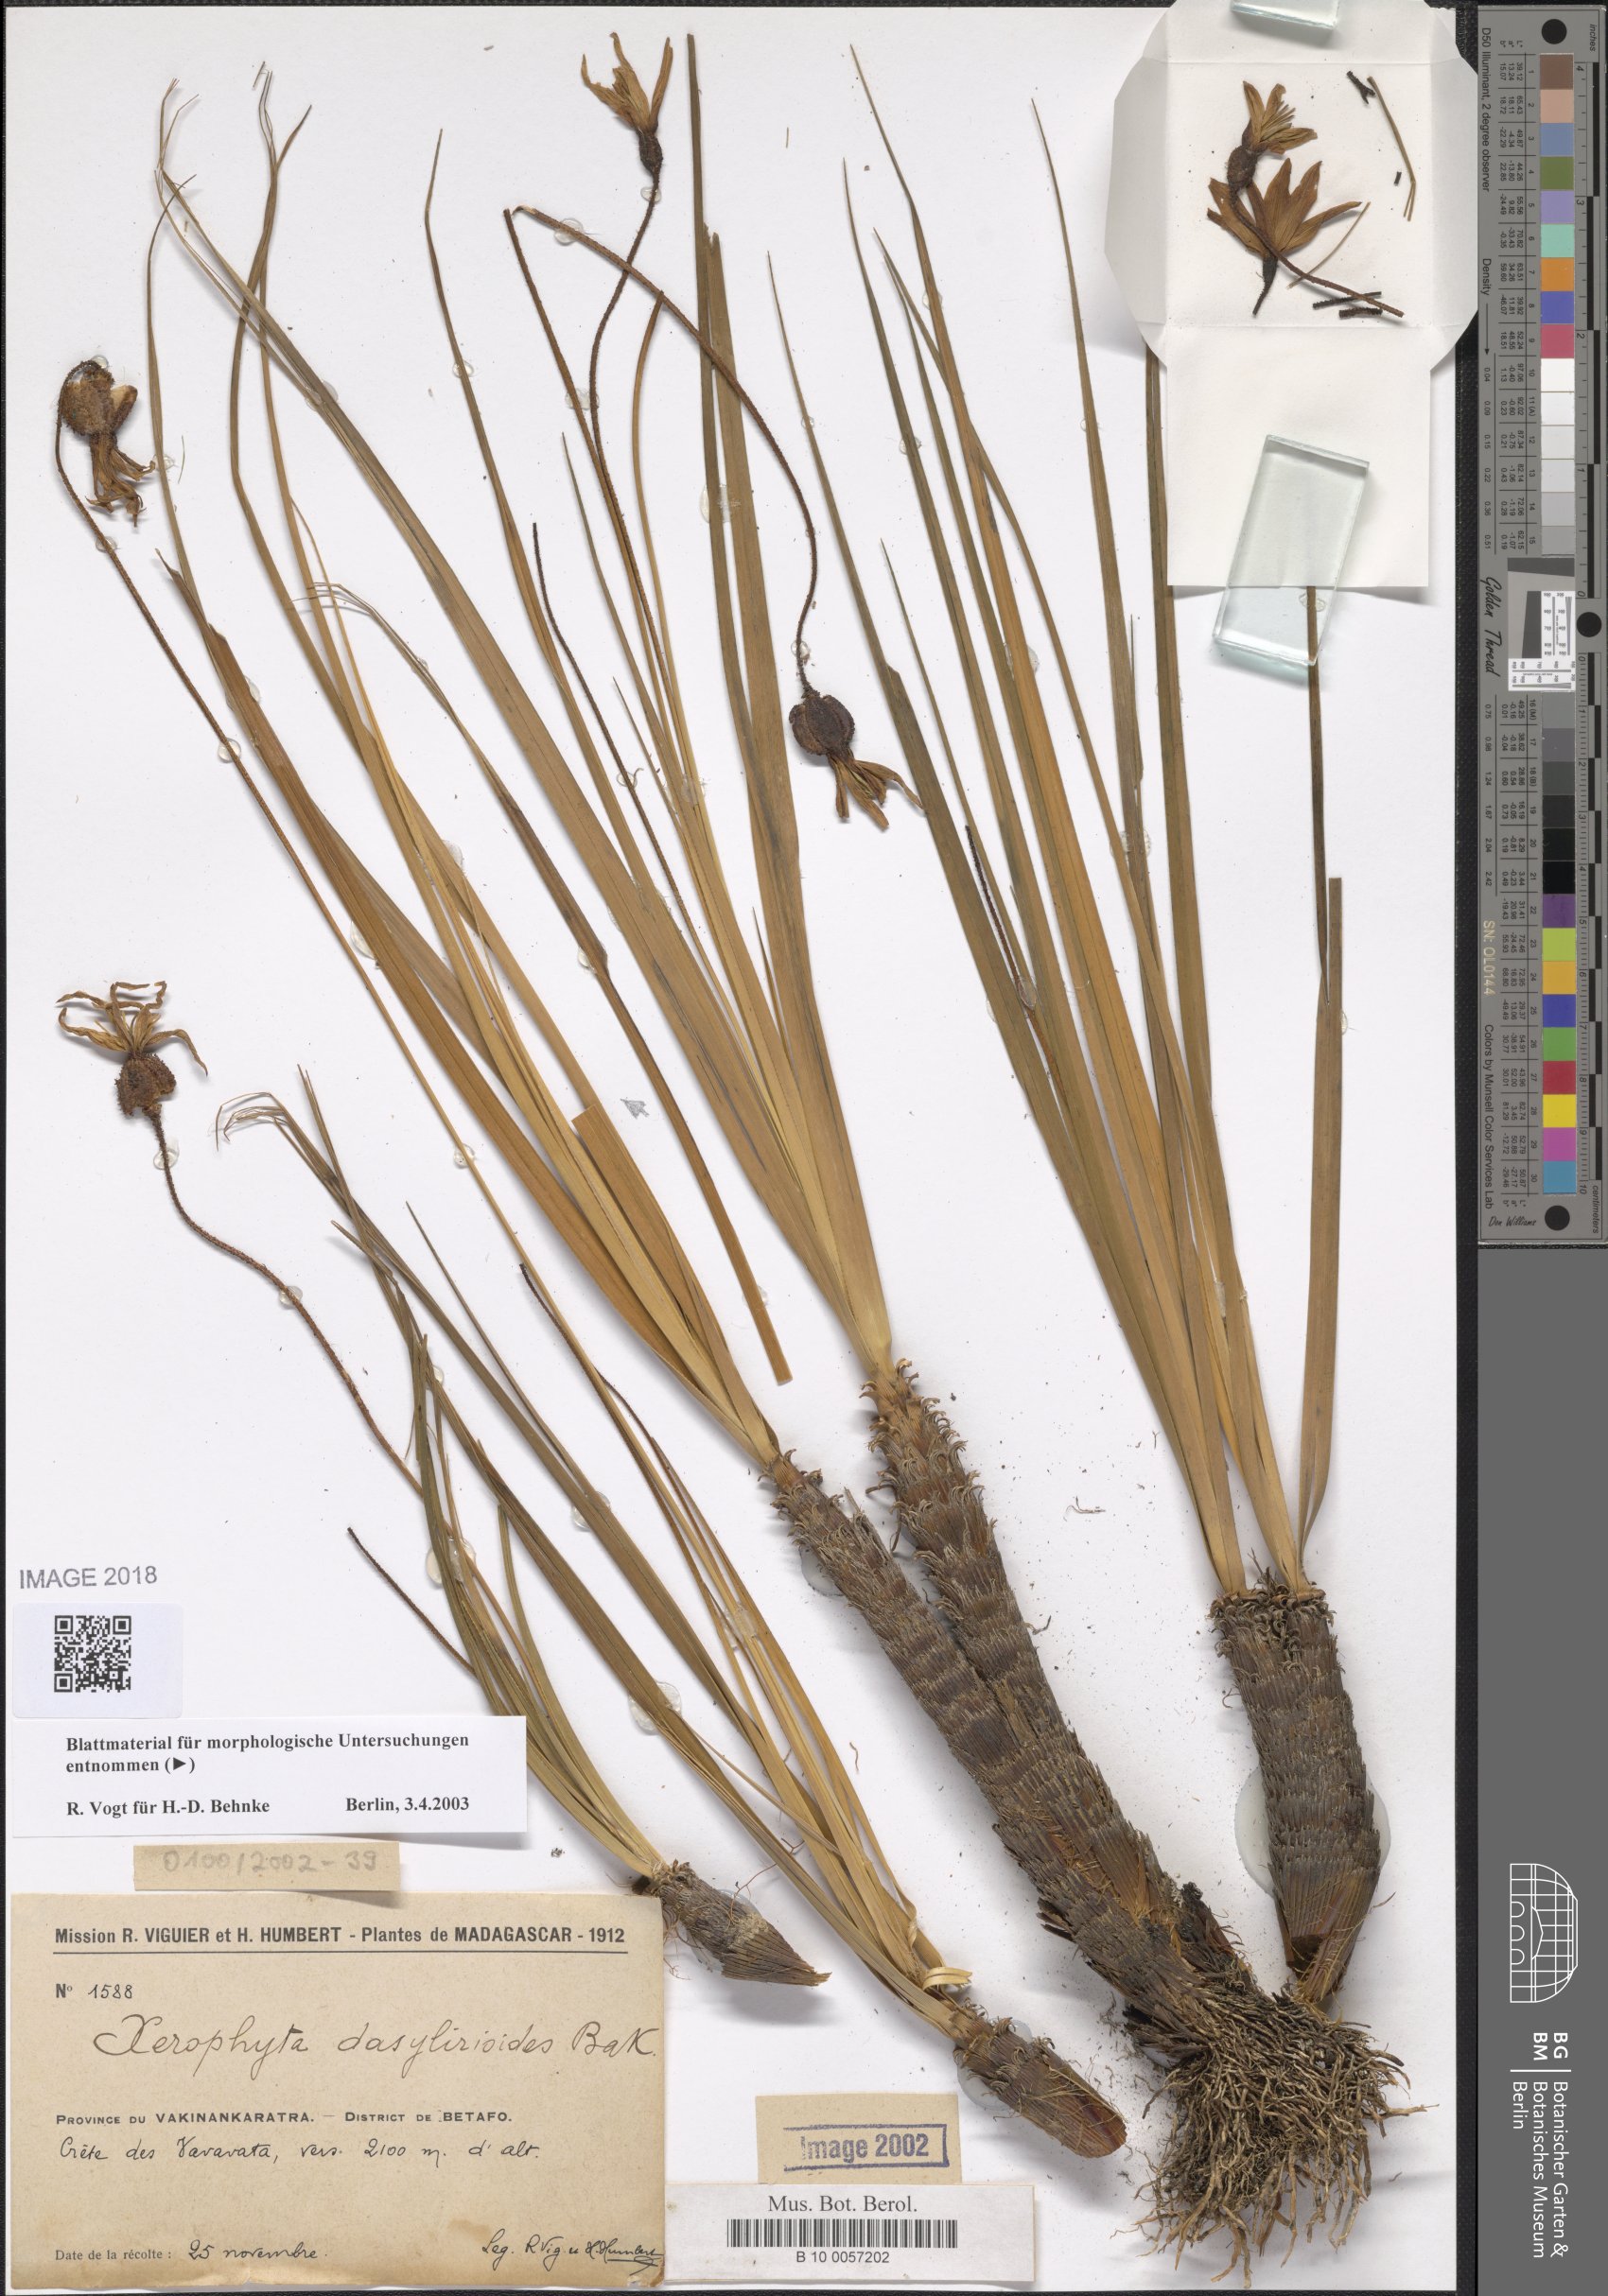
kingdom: Plantae
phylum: Tracheophyta
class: Liliopsida
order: Pandanales
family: Velloziaceae
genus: Xerophyta
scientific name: Xerophyta dasylirioides
